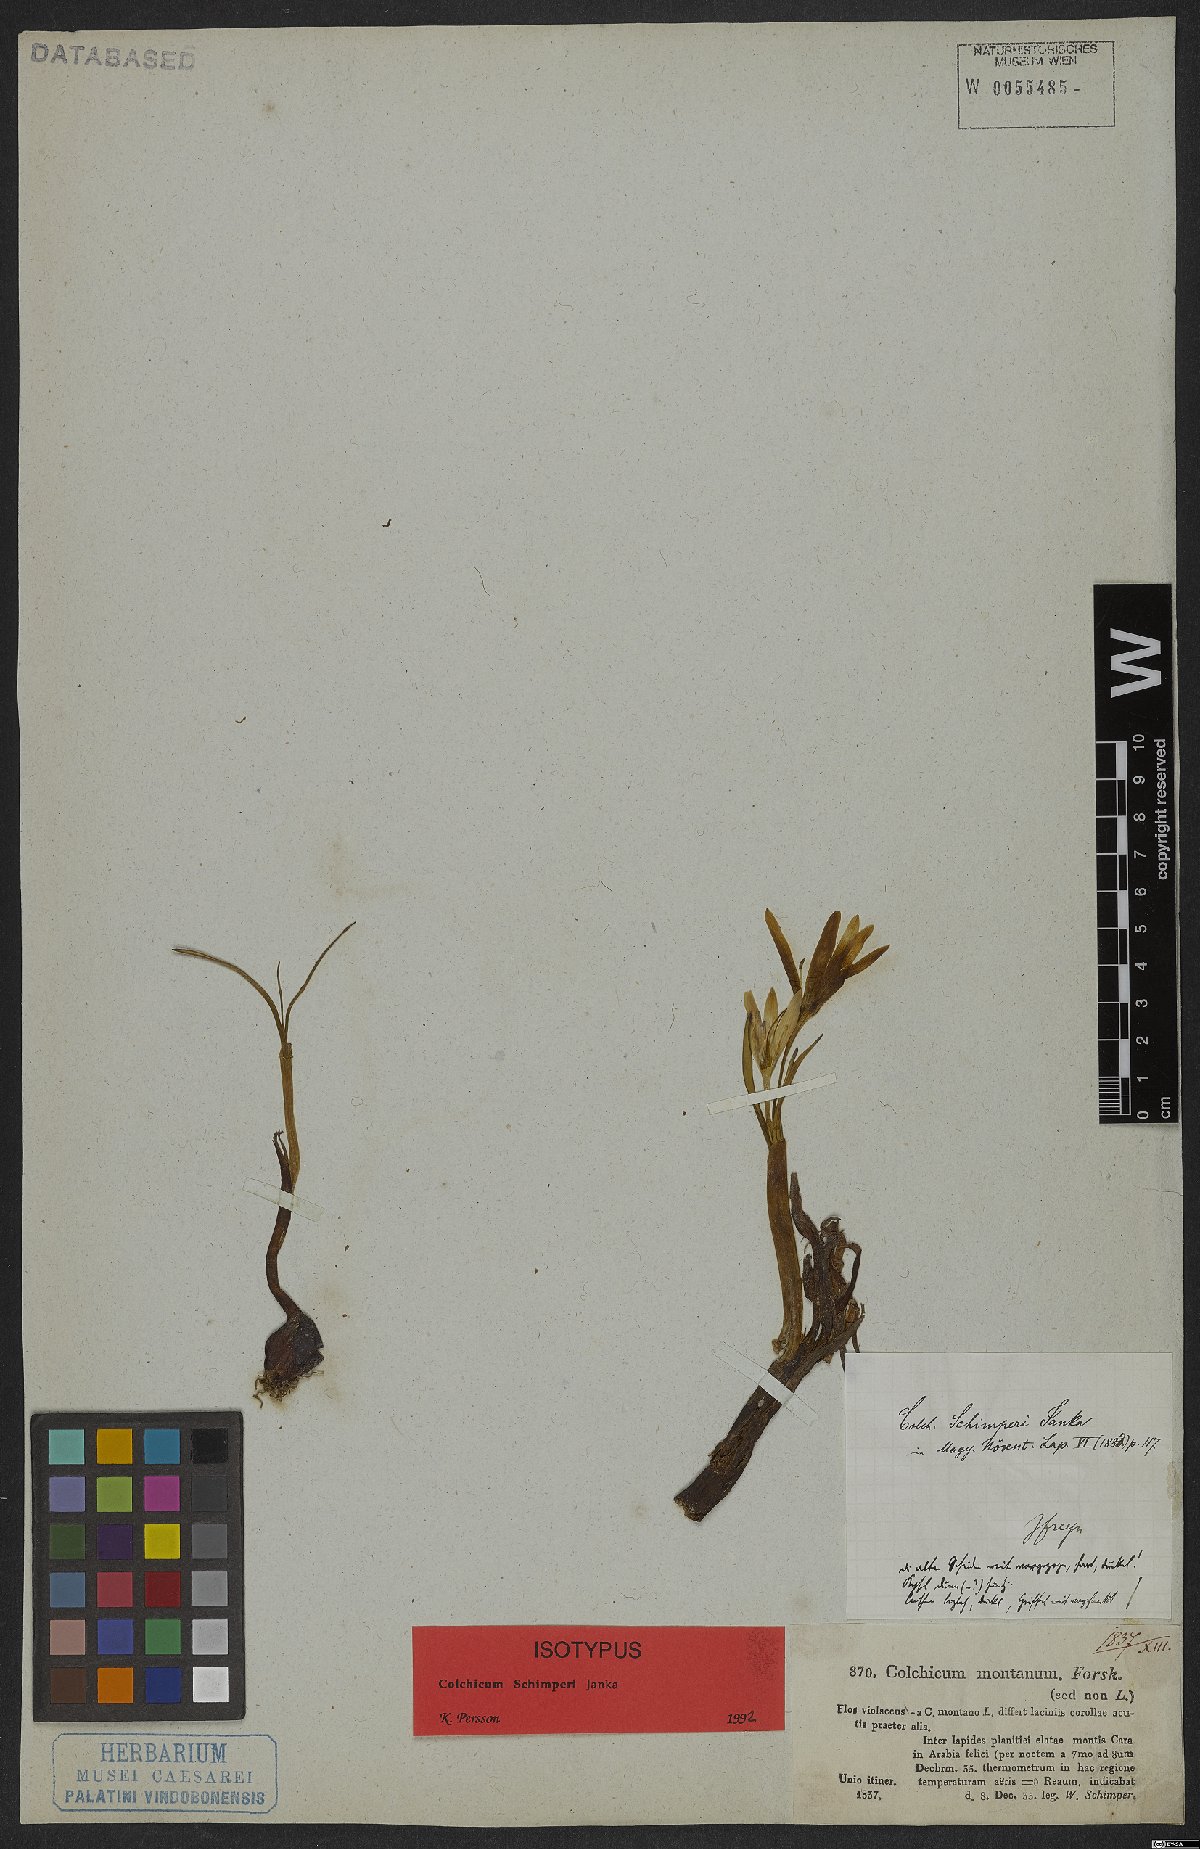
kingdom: Plantae
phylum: Tracheophyta
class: Liliopsida
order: Liliales
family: Colchicaceae
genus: Colchicum
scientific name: Colchicum schimperi
